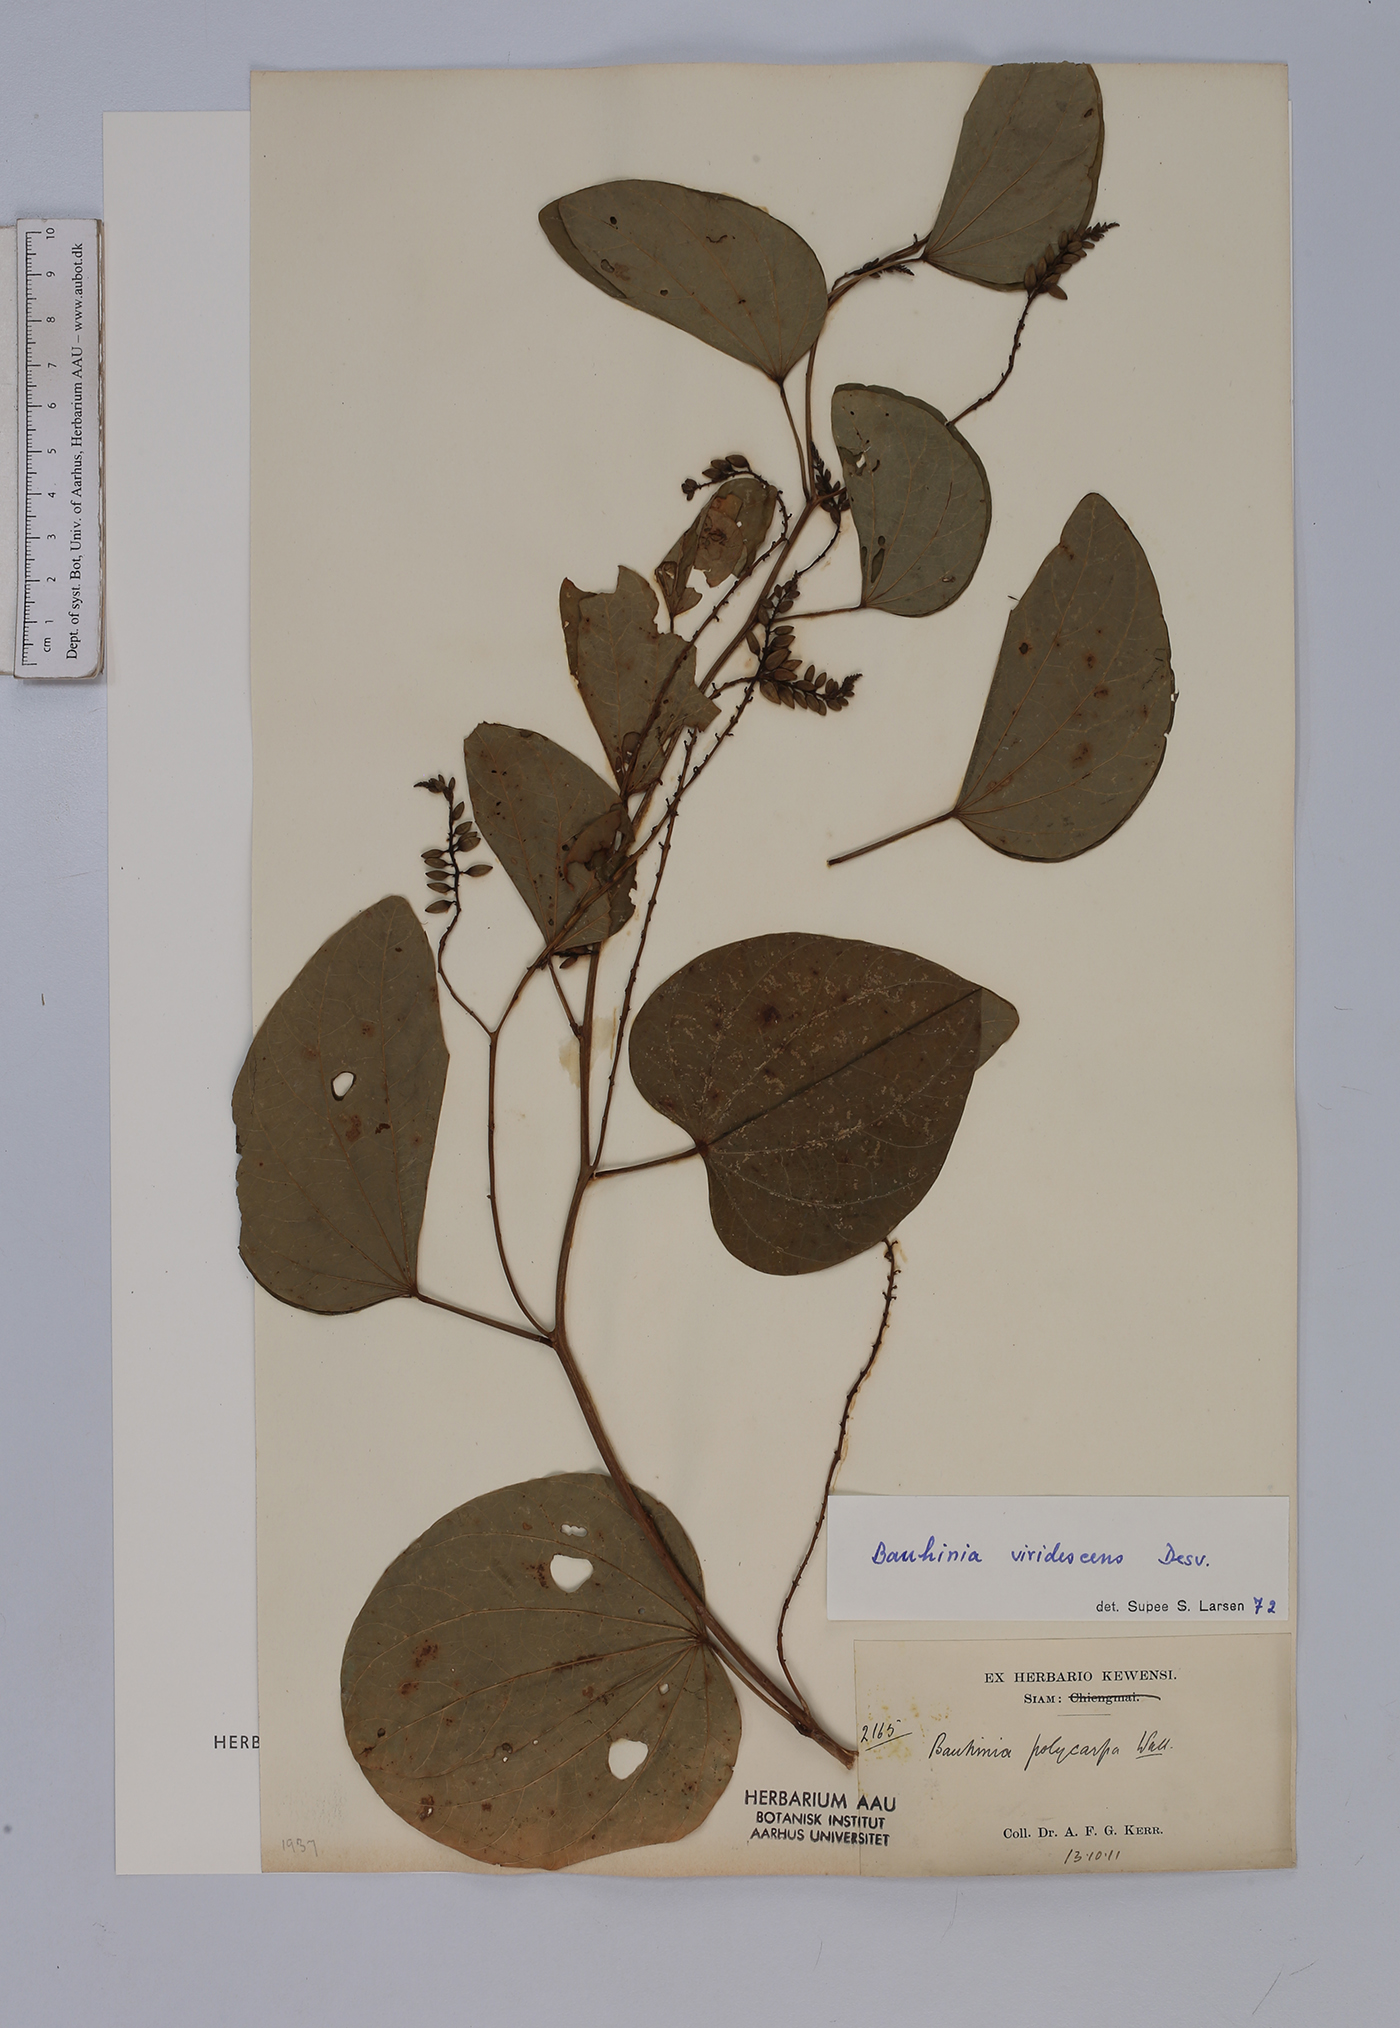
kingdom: Plantae
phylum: Tracheophyta
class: Magnoliopsida
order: Fabales
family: Fabaceae
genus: Bauhinia
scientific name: Bauhinia viridescens
